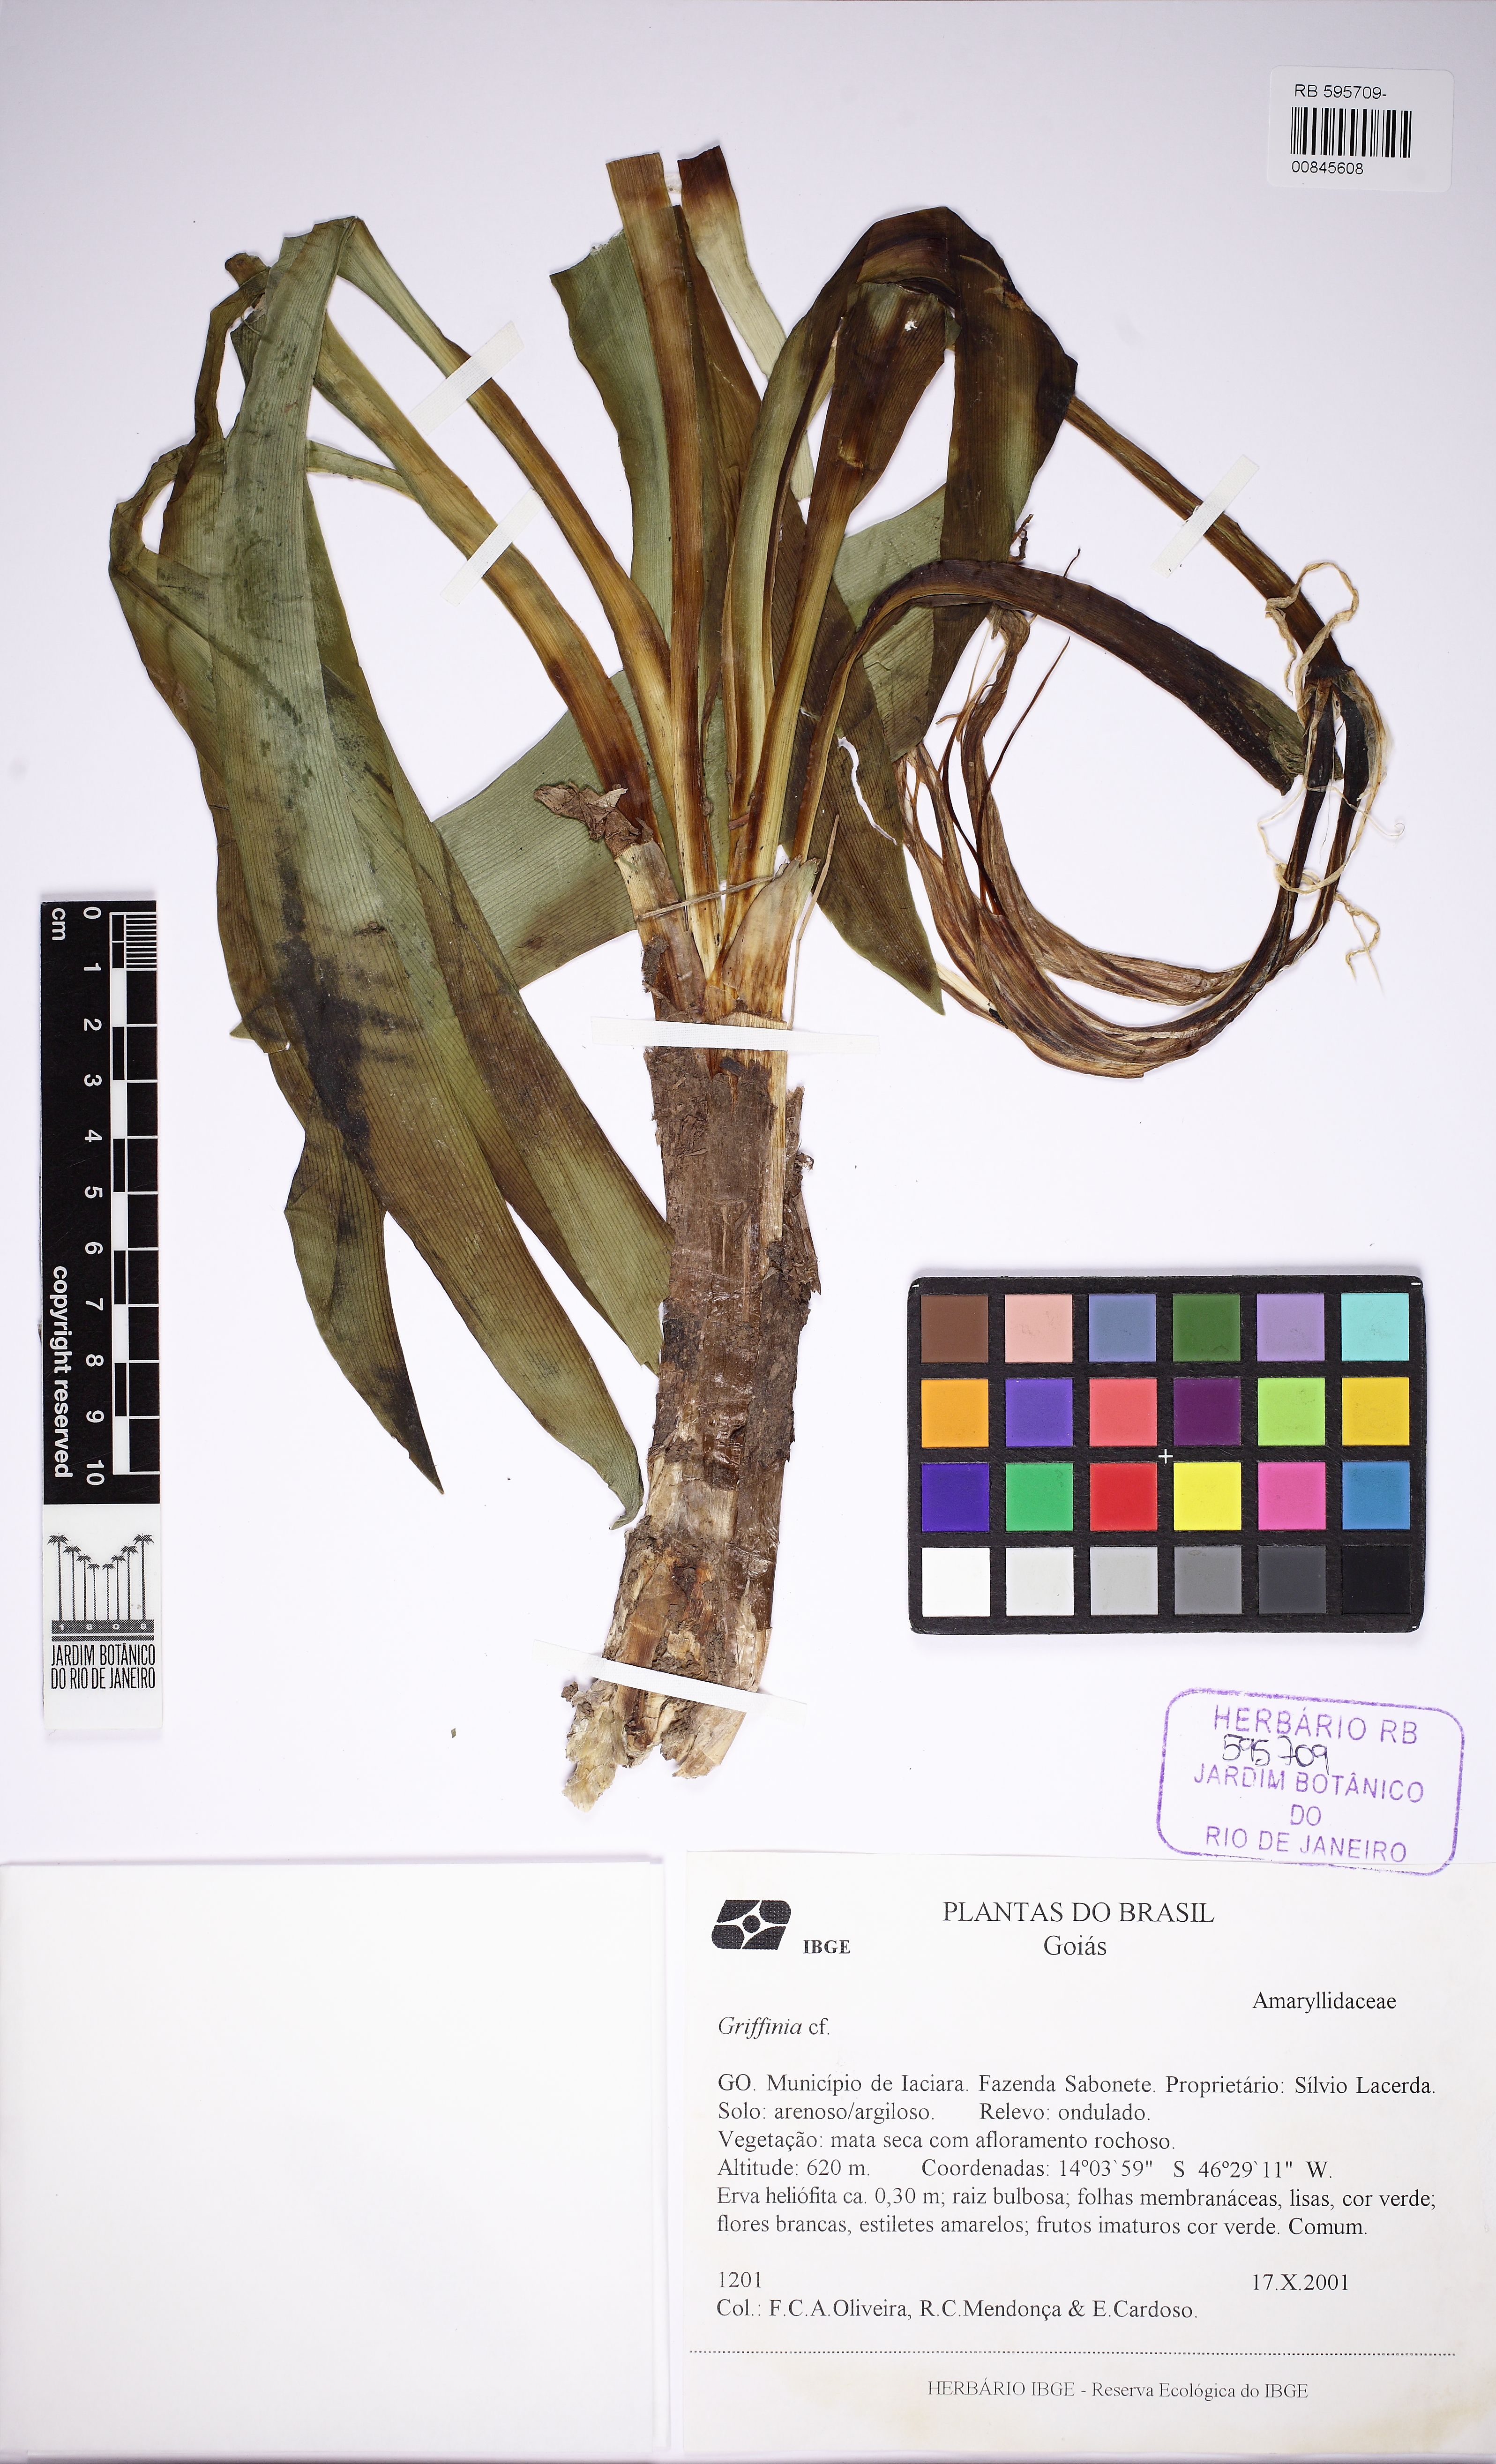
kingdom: Plantae
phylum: Tracheophyta
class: Liliopsida
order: Asparagales
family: Amaryllidaceae
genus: Griffinia
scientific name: Griffinia
